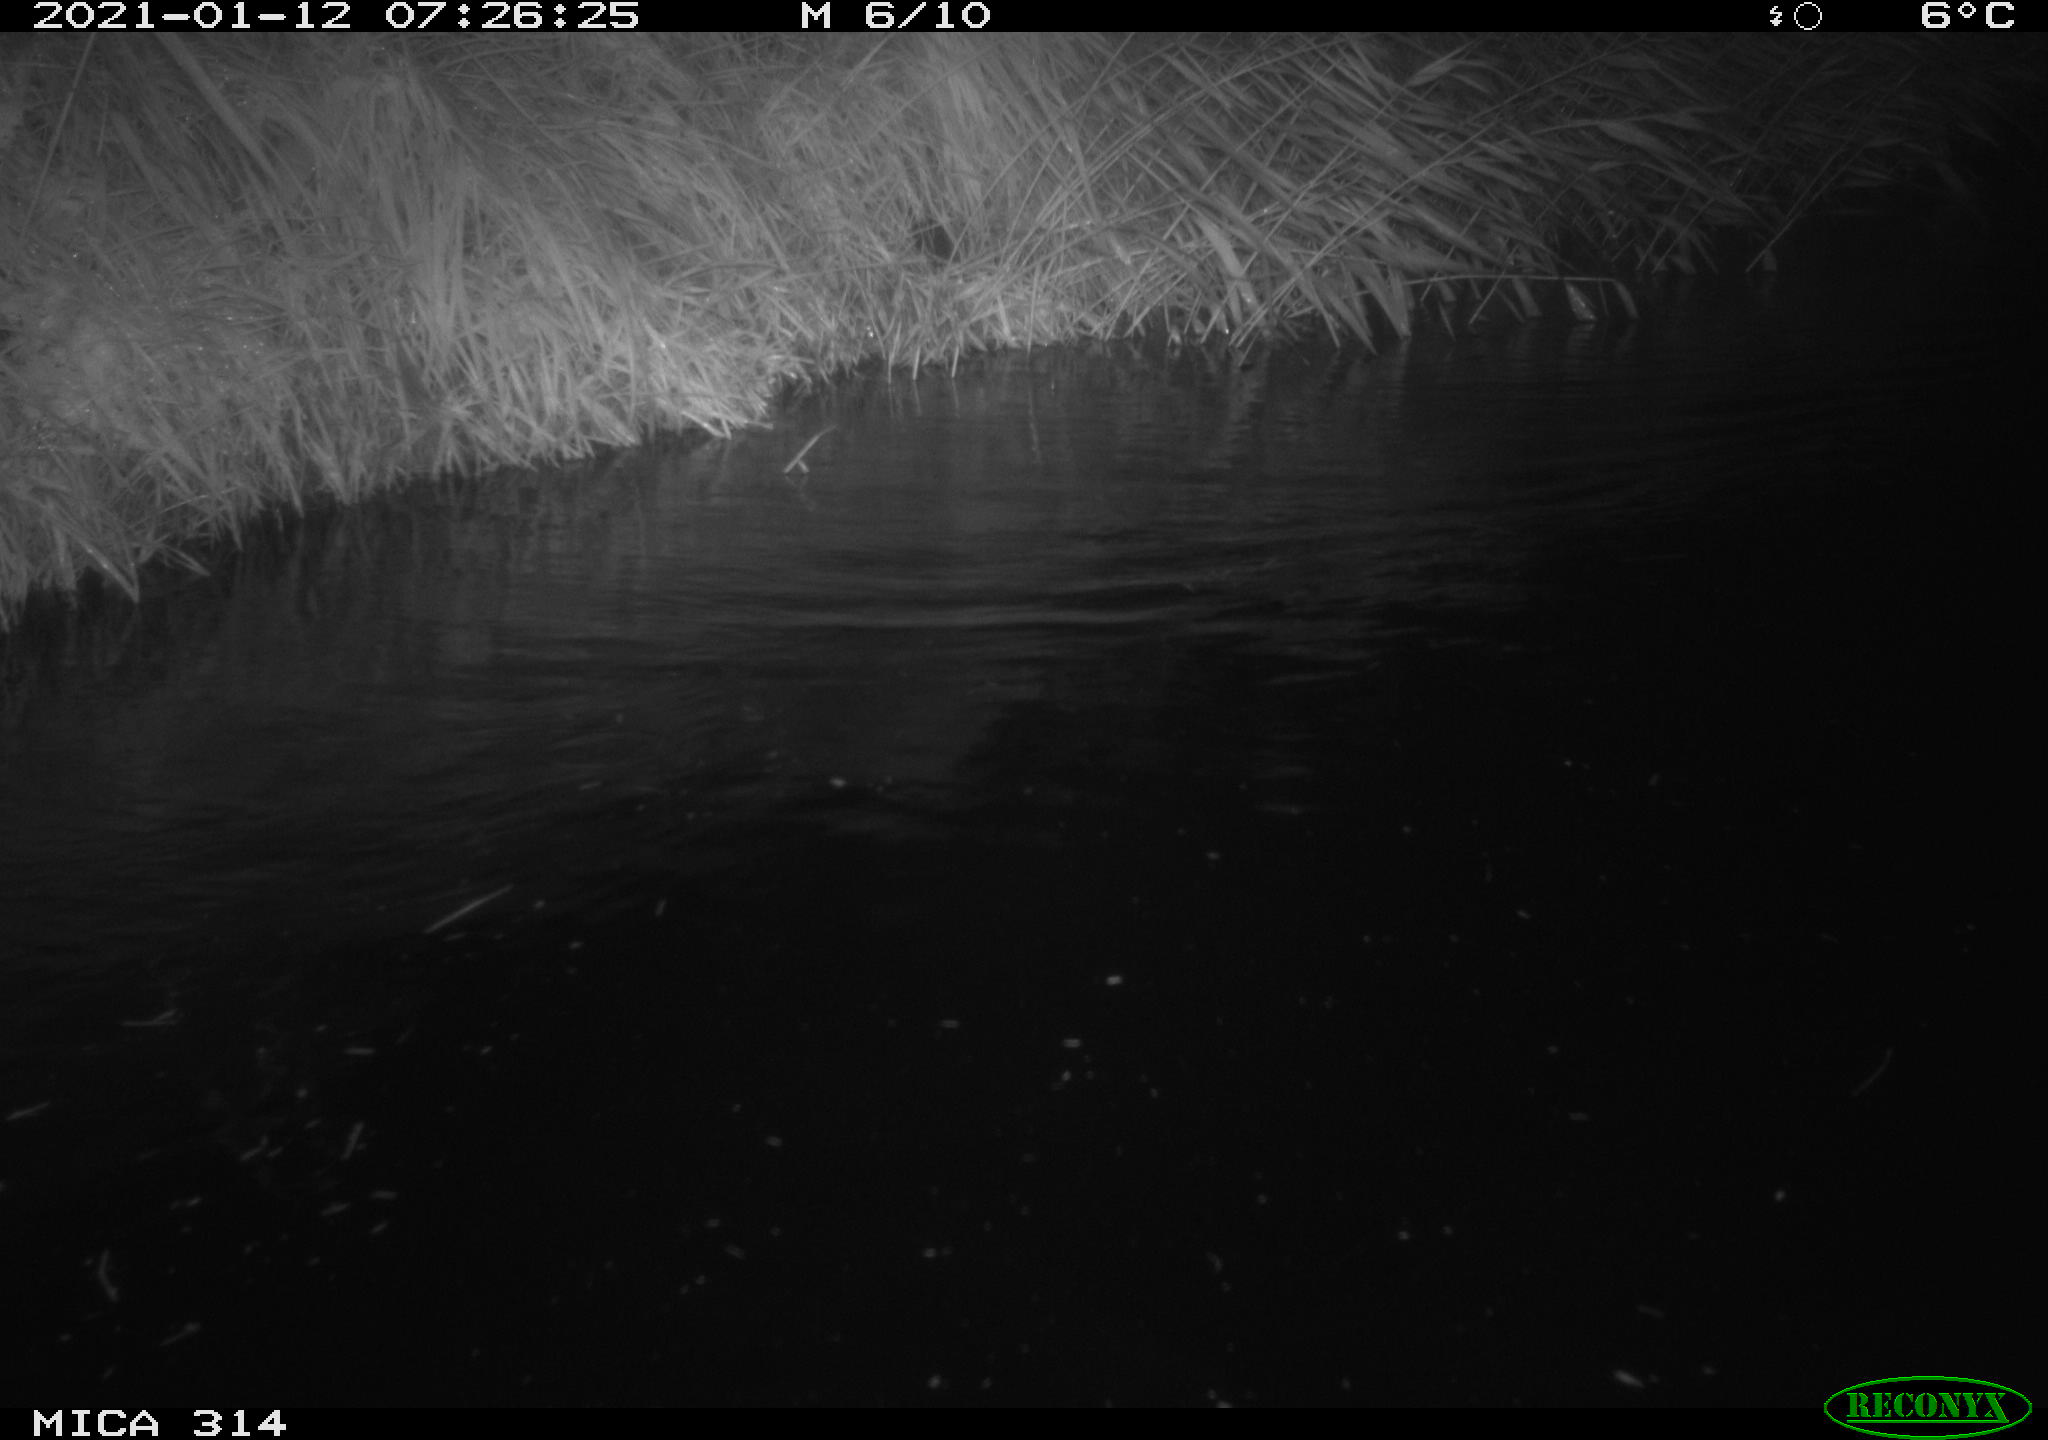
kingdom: Animalia
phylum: Chordata
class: Mammalia
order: Rodentia
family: Muridae
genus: Rattus
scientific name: Rattus norvegicus
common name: Brown rat
